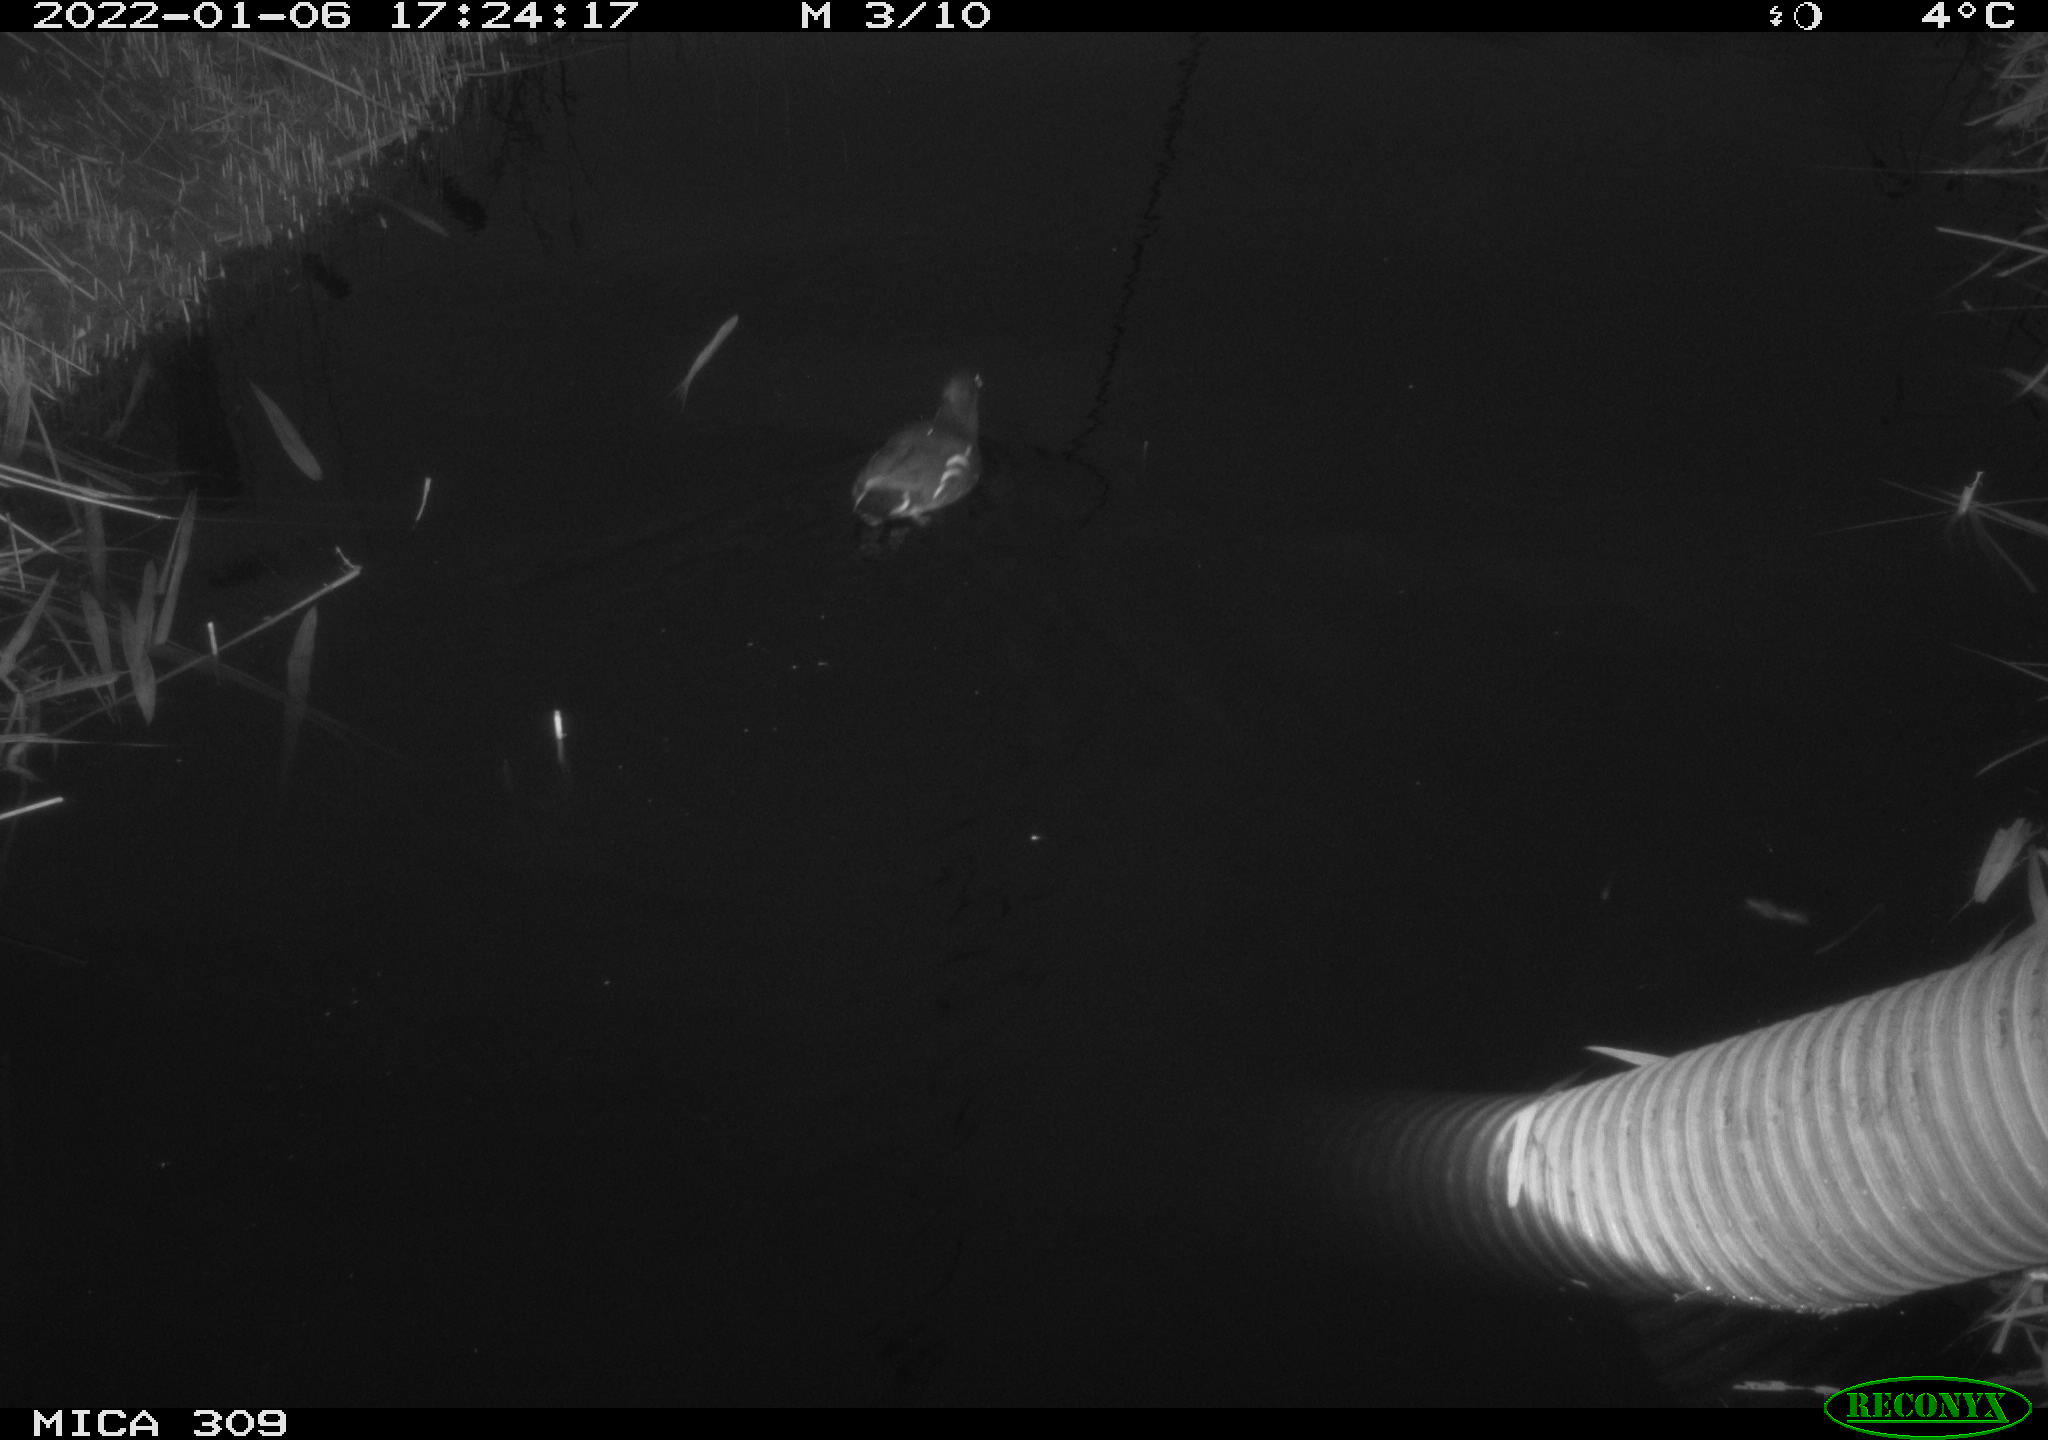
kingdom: Animalia
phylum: Chordata
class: Aves
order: Gruiformes
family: Rallidae
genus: Gallinula
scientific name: Gallinula chloropus
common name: Common moorhen
